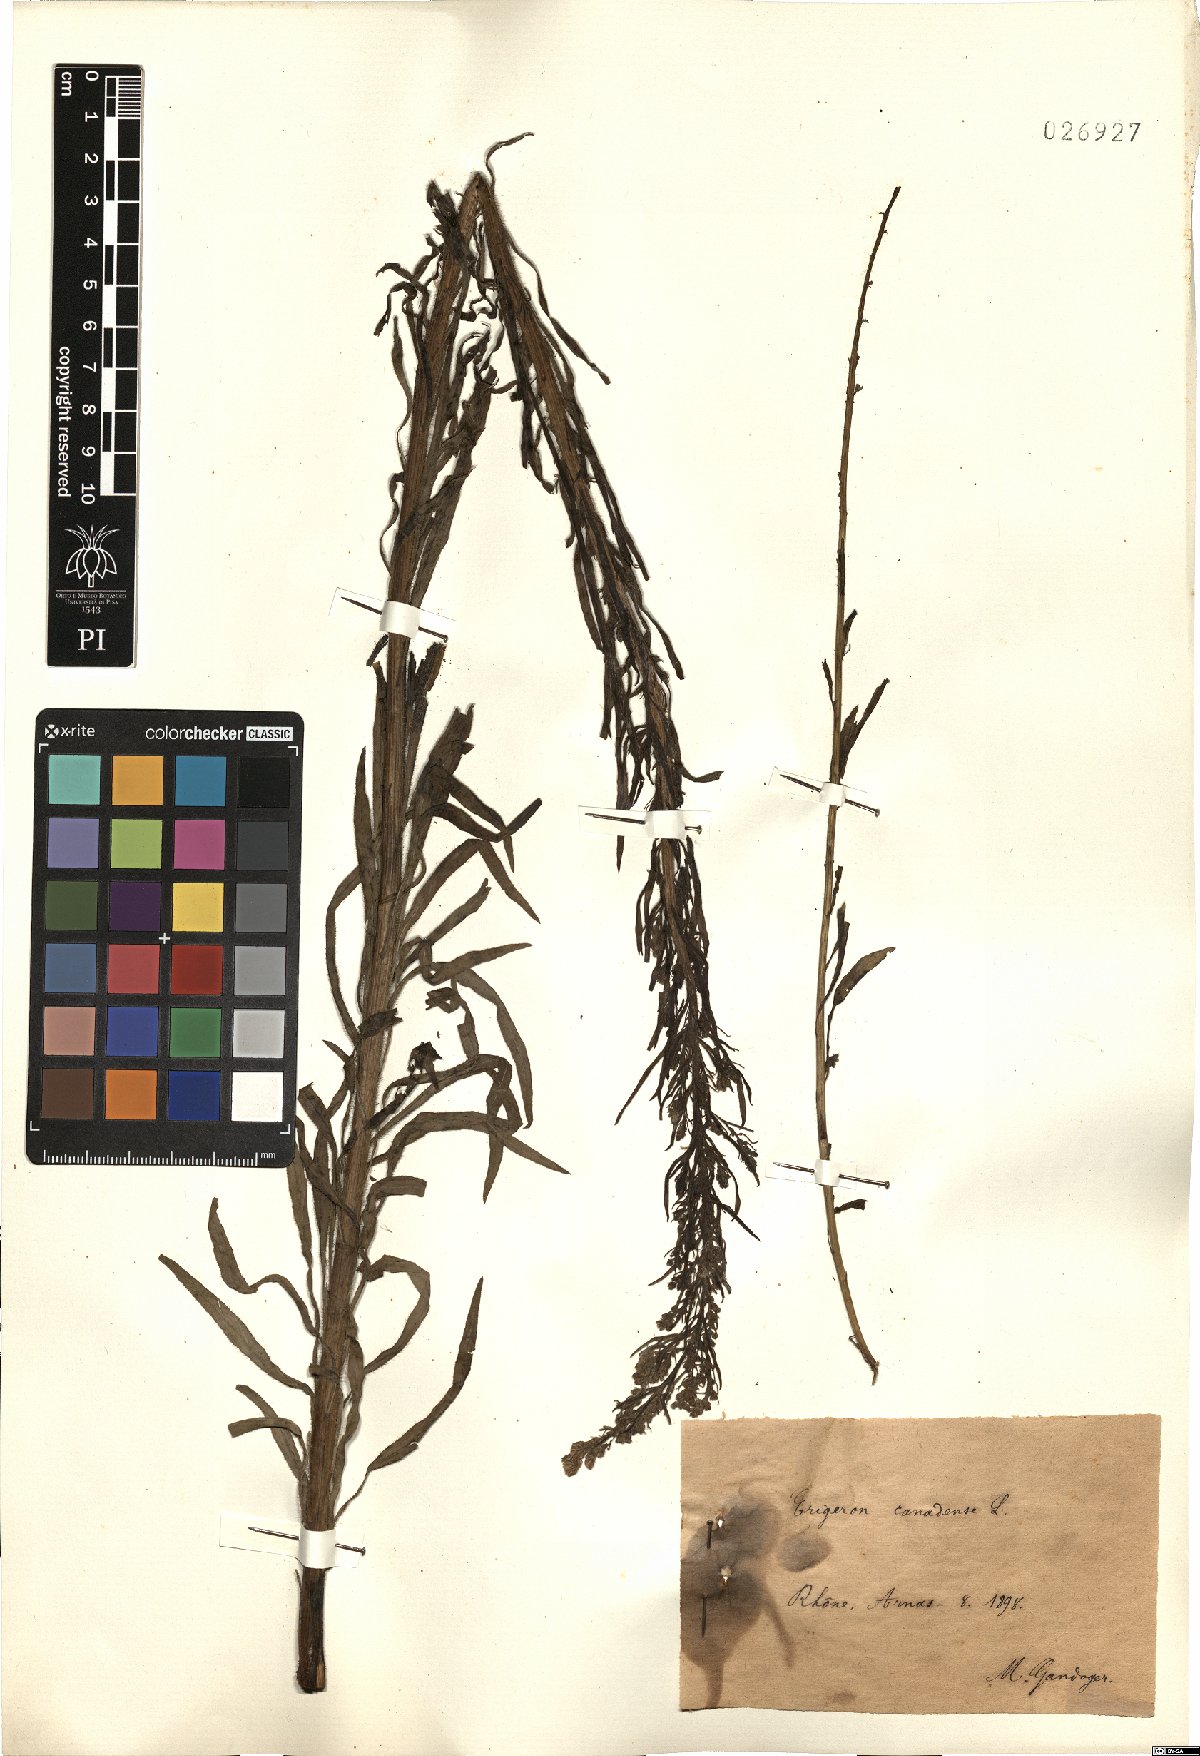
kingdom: Plantae
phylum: Tracheophyta
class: Magnoliopsida
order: Asterales
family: Asteraceae
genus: Erigeron
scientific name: Erigeron canadensis
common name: Canadian fleabane
